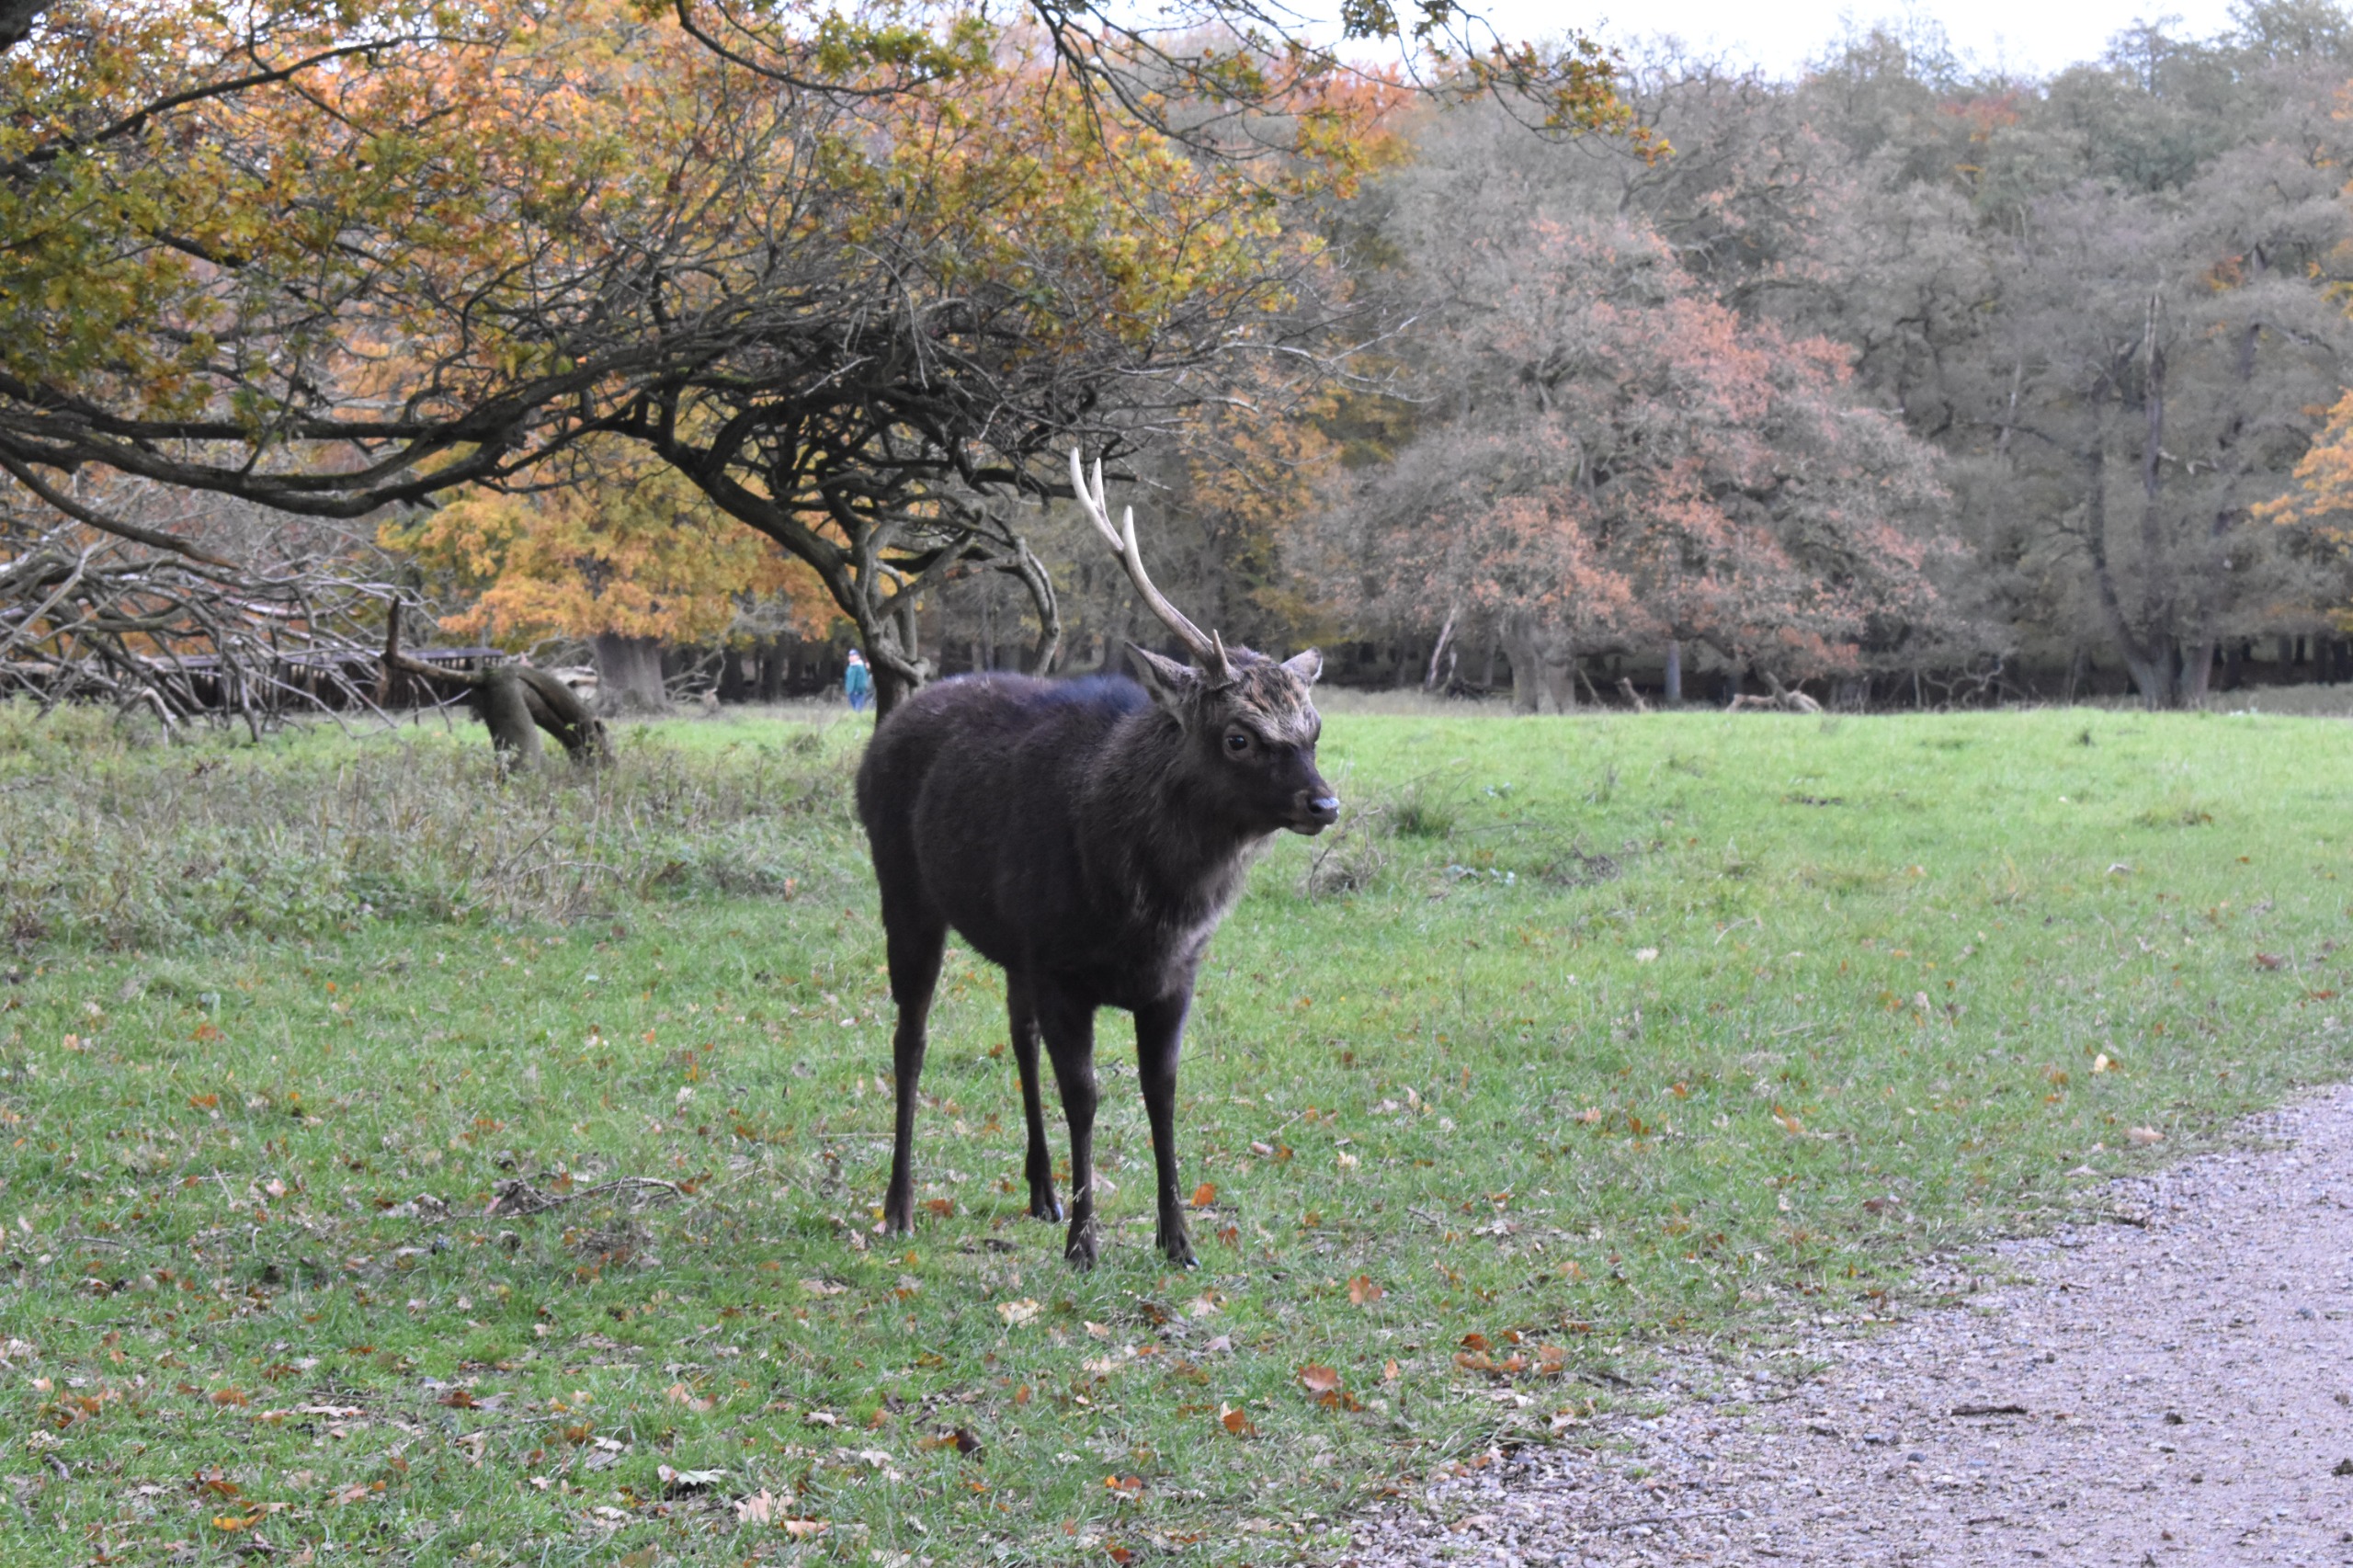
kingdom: Animalia
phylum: Chordata
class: Mammalia
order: Artiodactyla
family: Cervidae
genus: Cervus
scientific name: Cervus nippon
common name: Sika
